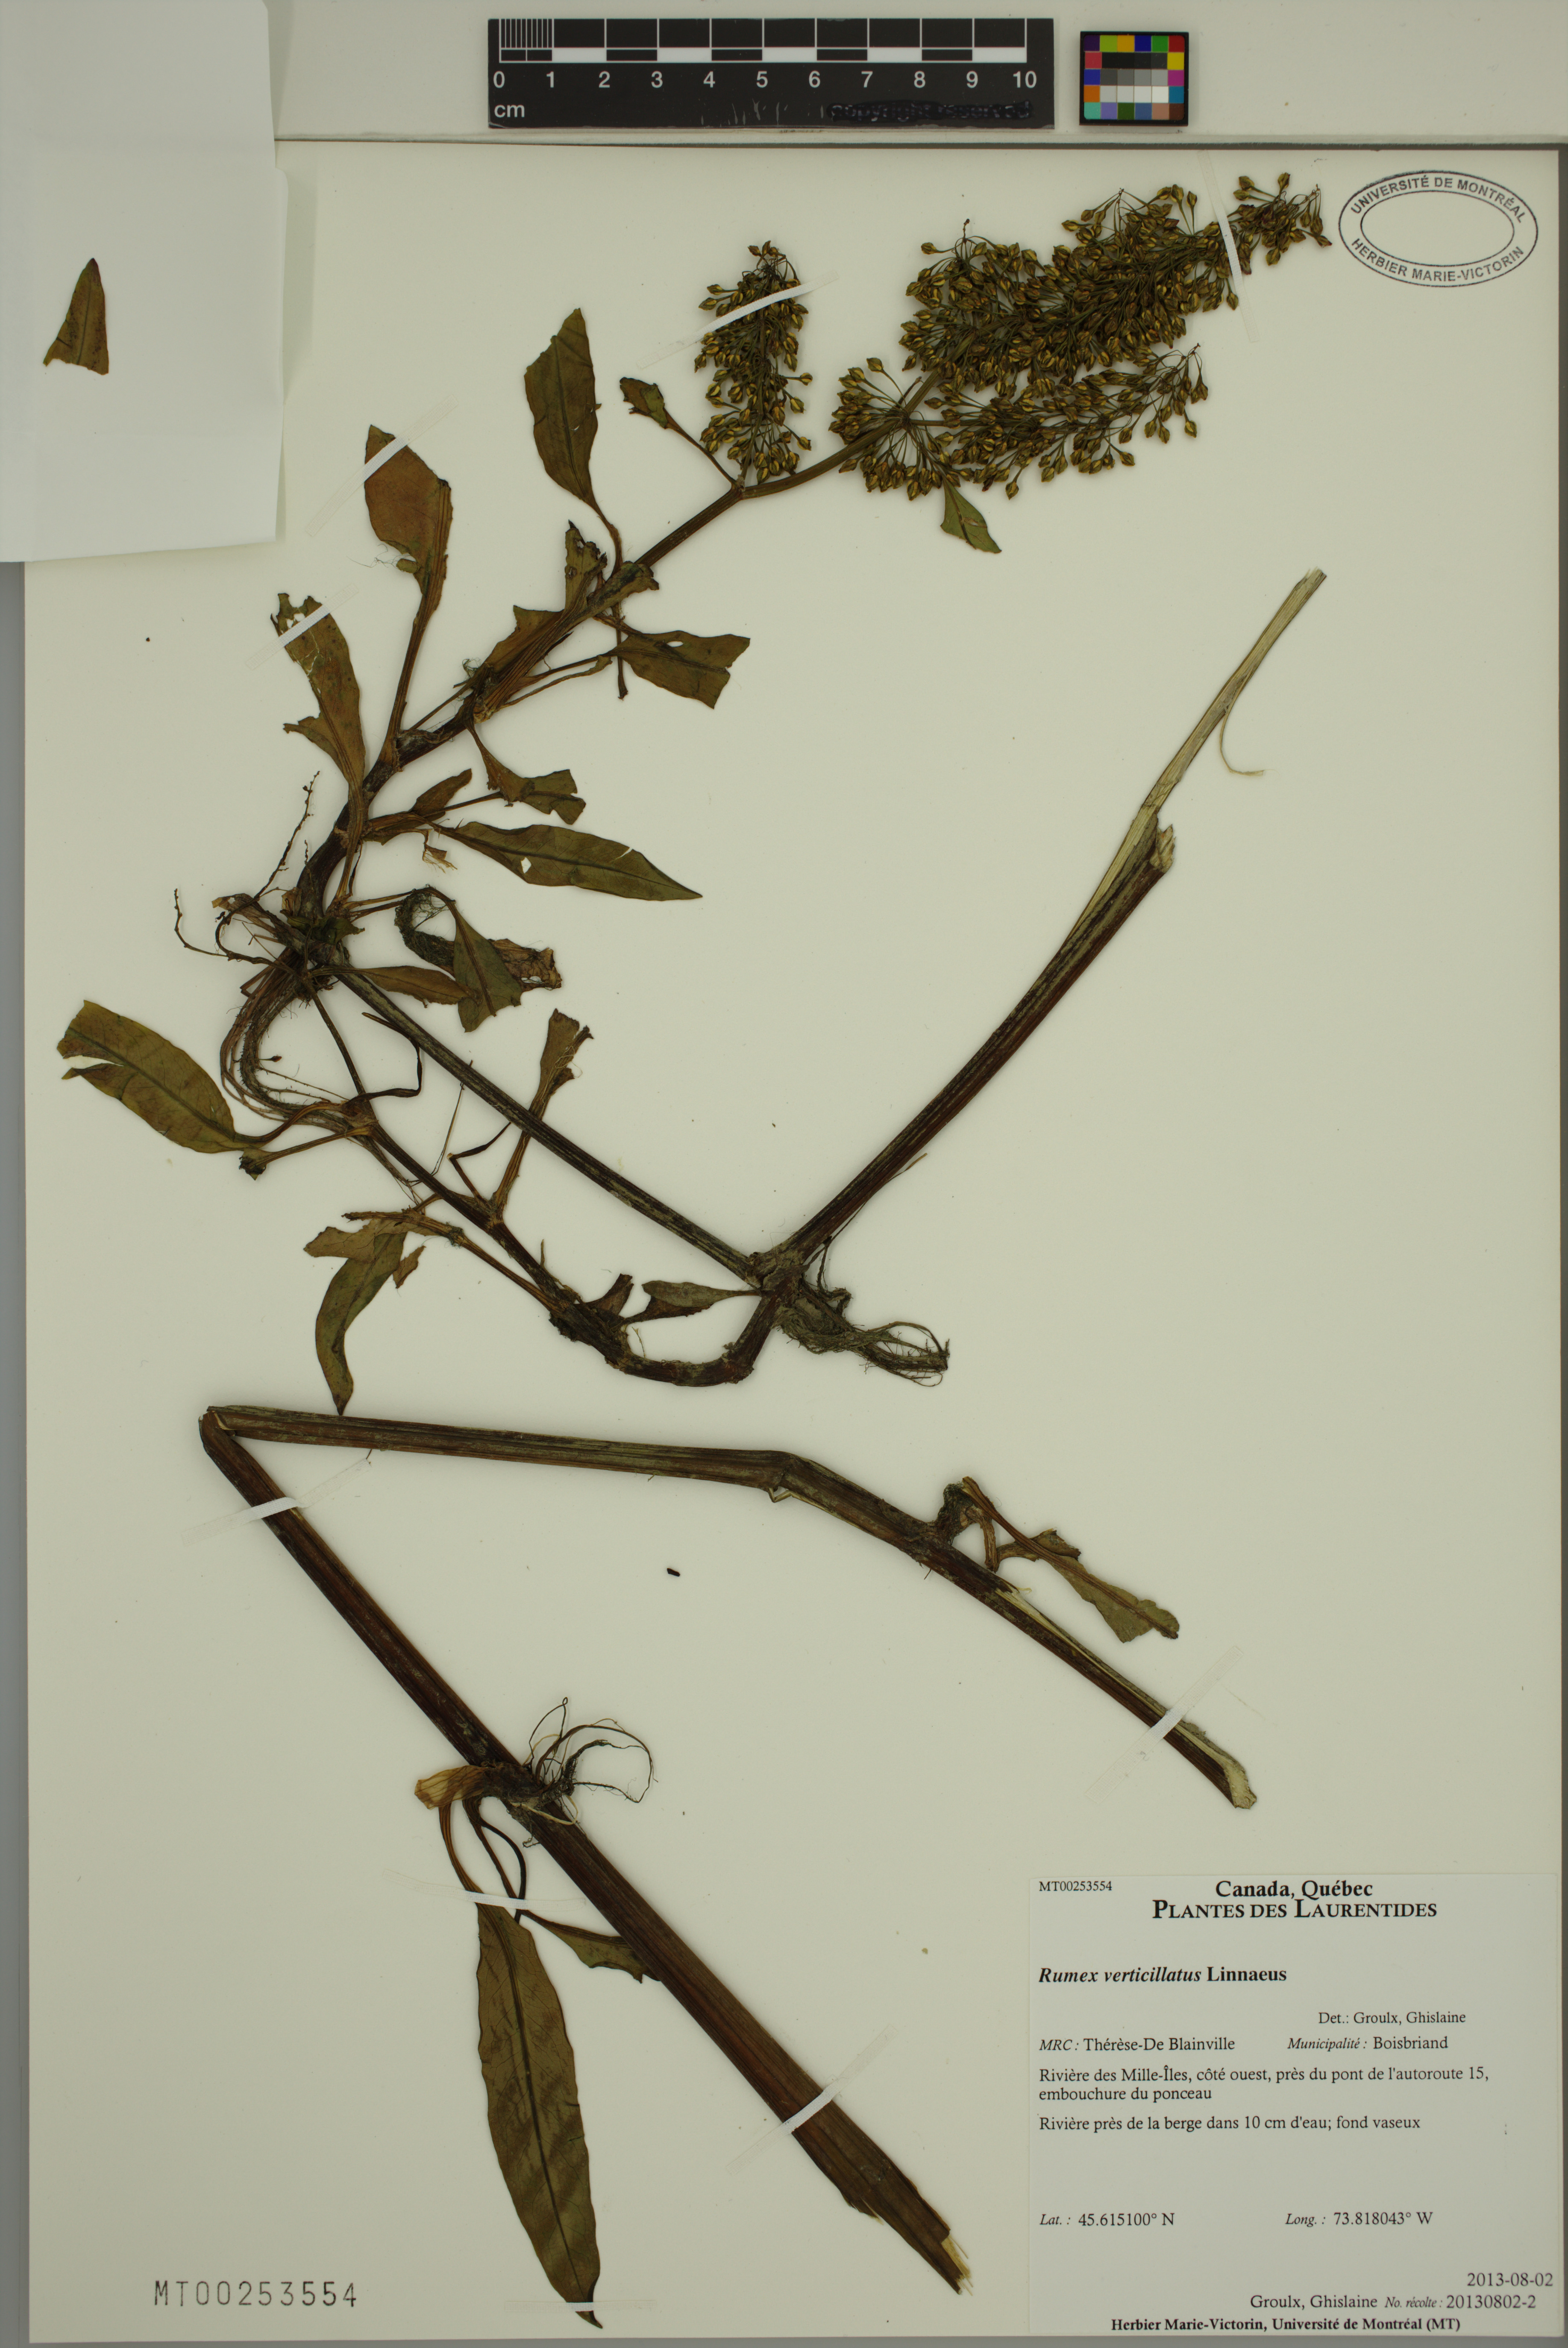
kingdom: Plantae
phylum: Tracheophyta
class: Magnoliopsida
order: Caryophyllales
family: Polygonaceae
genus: Rumex
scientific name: Rumex verticillatus
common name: Swamp dock
